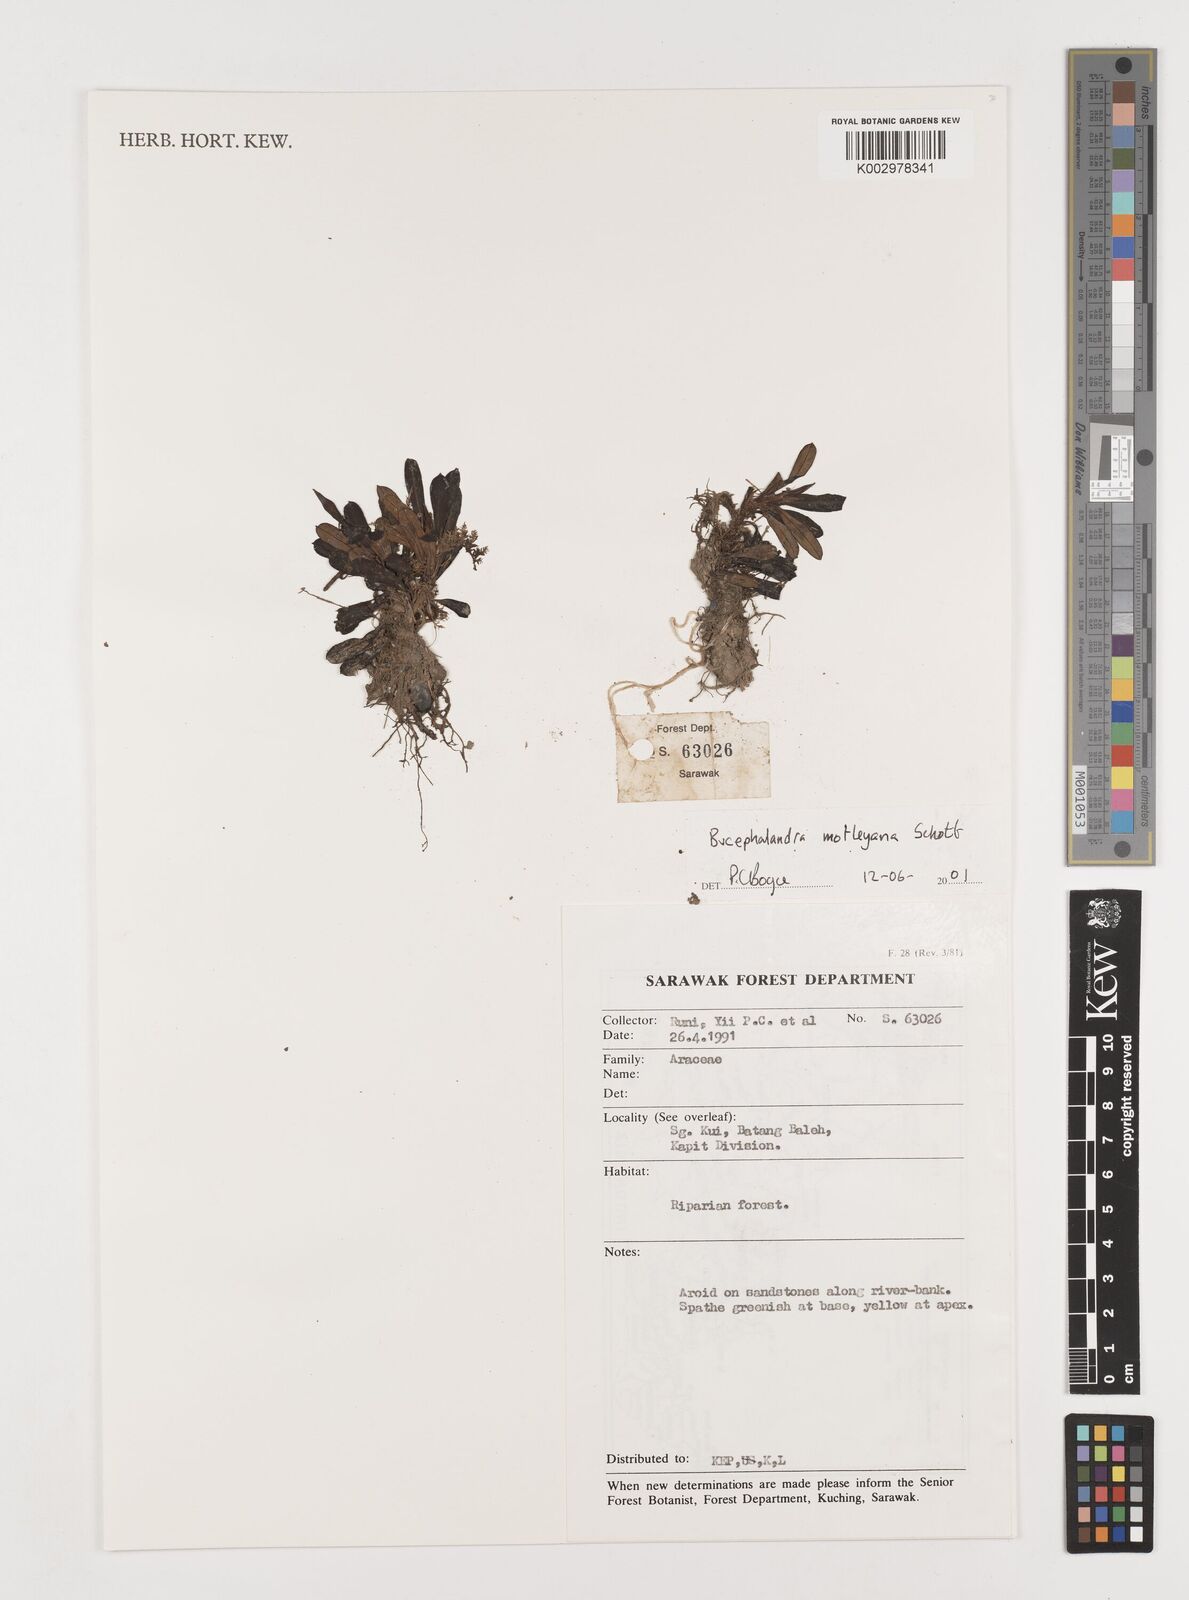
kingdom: Plantae
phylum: Tracheophyta
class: Liliopsida
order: Alismatales
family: Araceae
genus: Bucephalandra
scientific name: Bucephalandra motleyana
